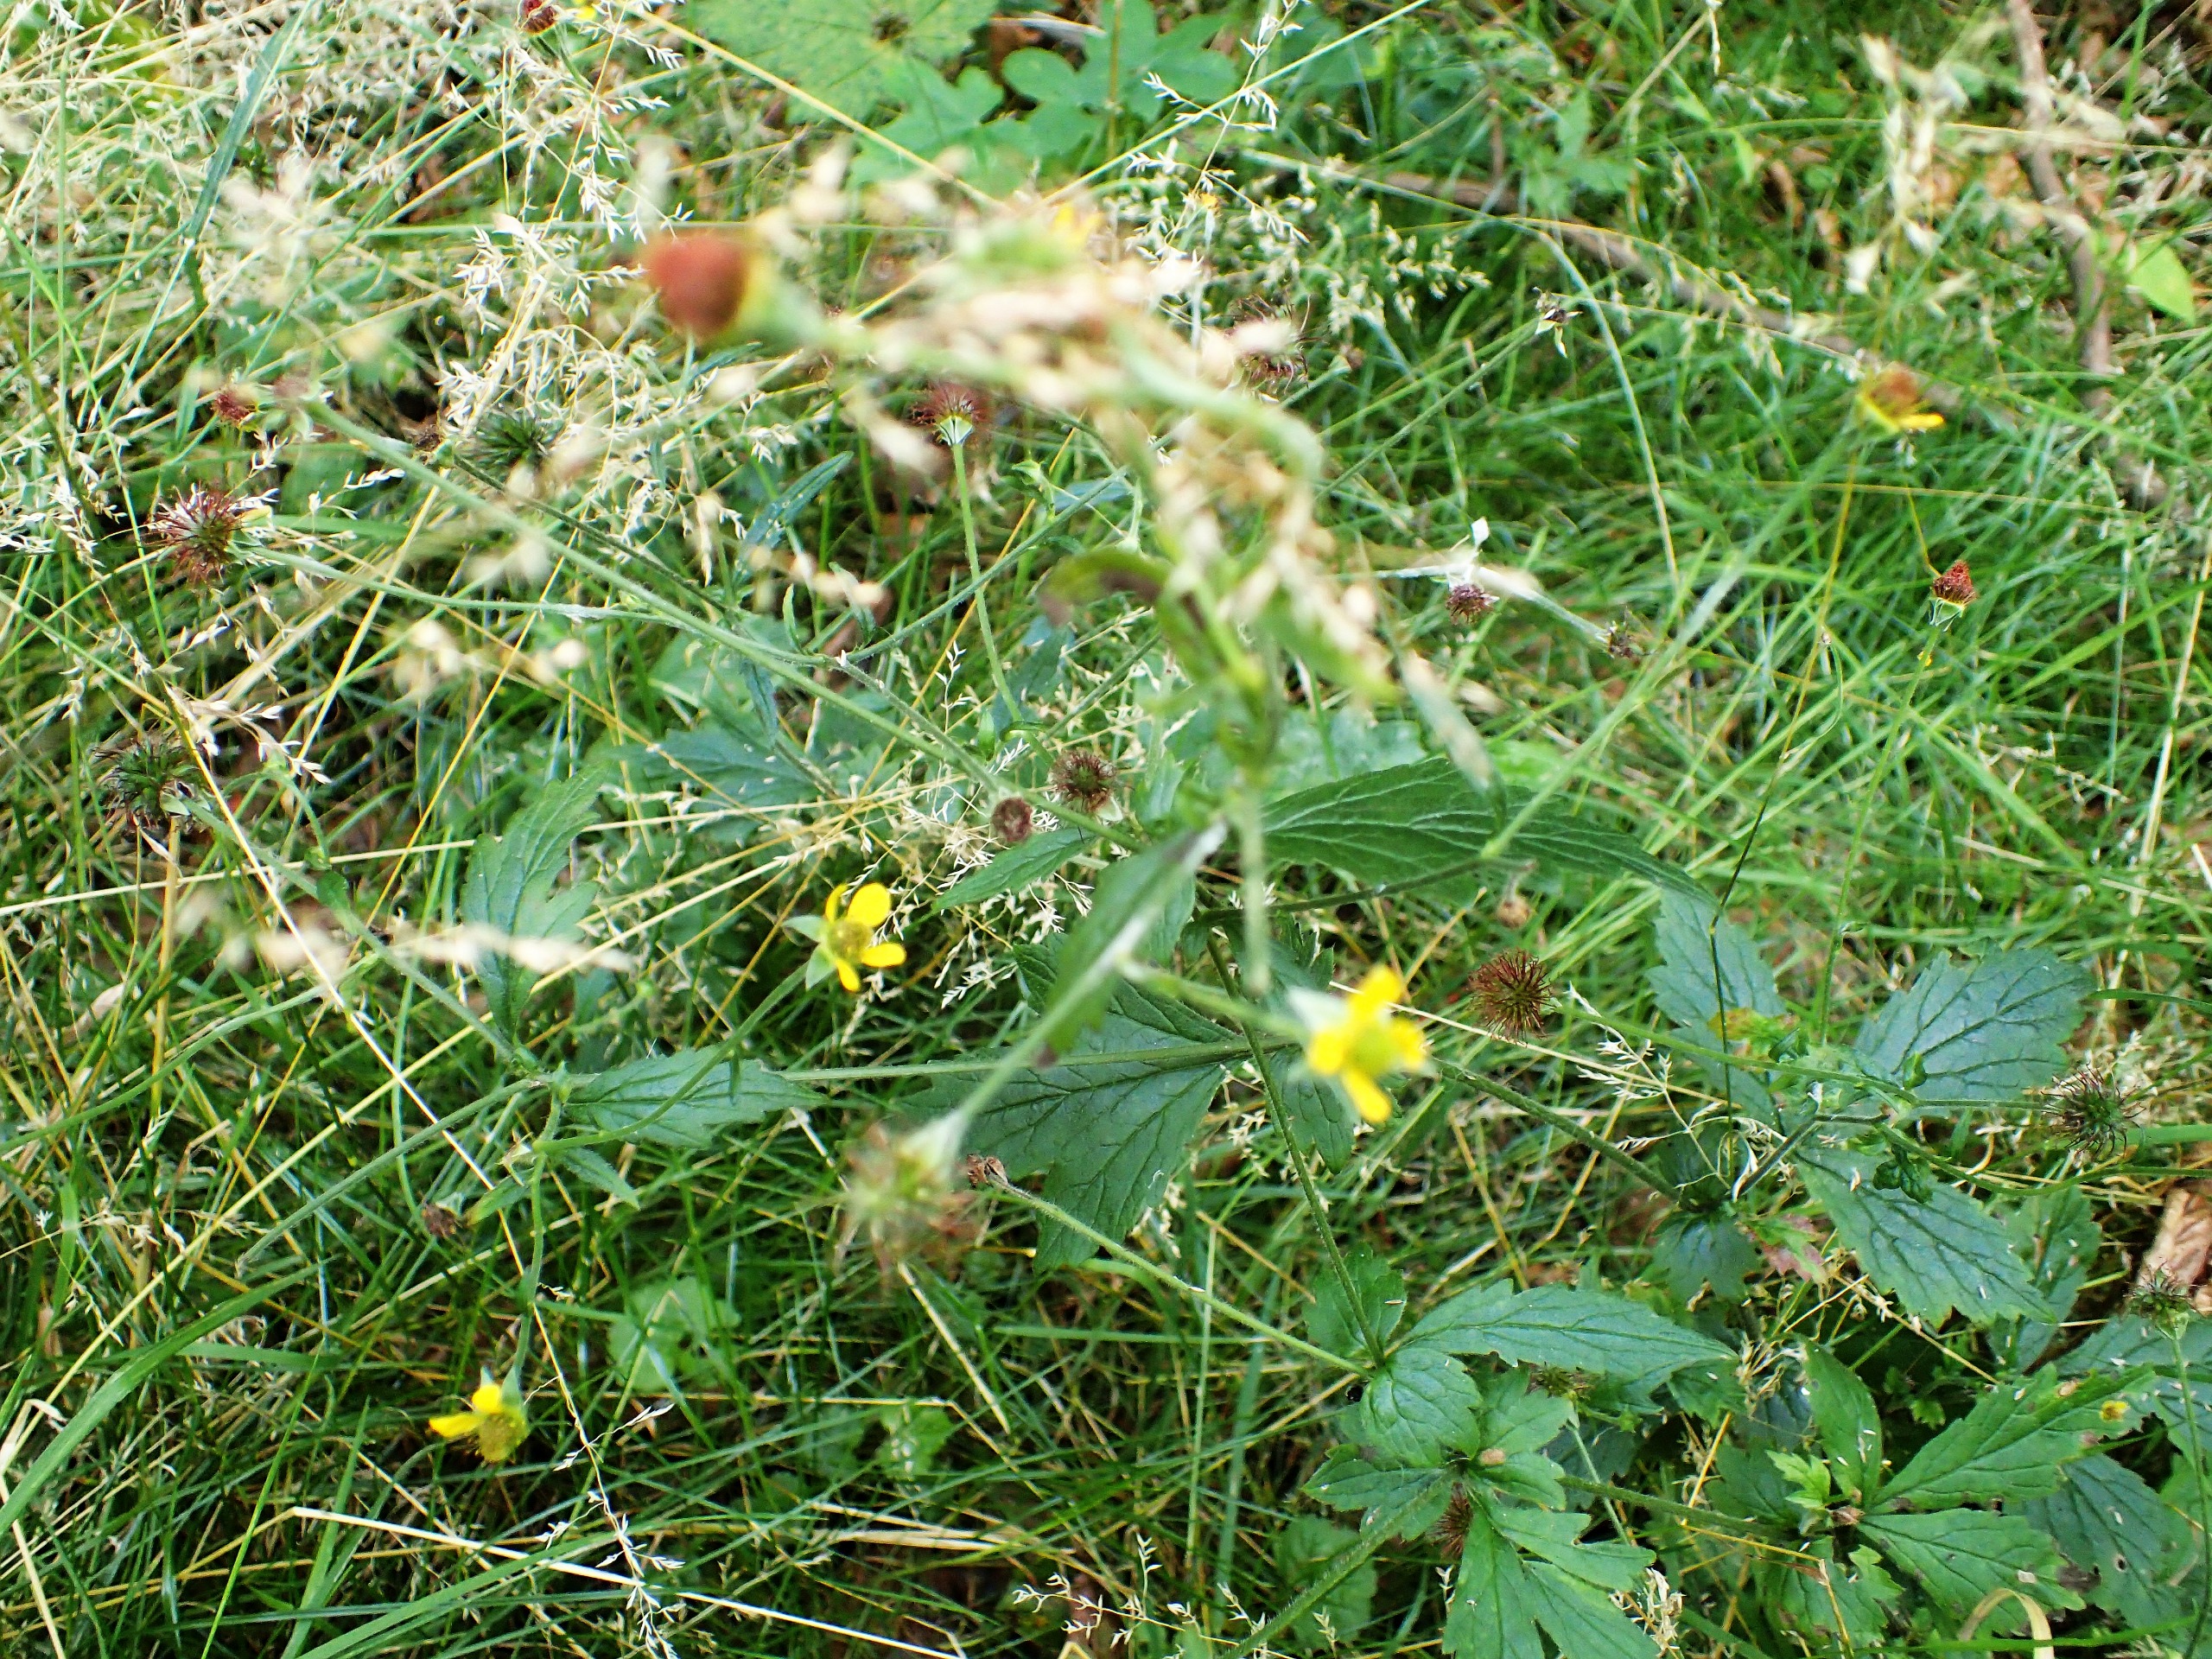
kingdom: Plantae
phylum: Tracheophyta
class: Magnoliopsida
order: Rosales
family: Rosaceae
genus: Geum
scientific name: Geum urbanum
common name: Feber-nellikerod
